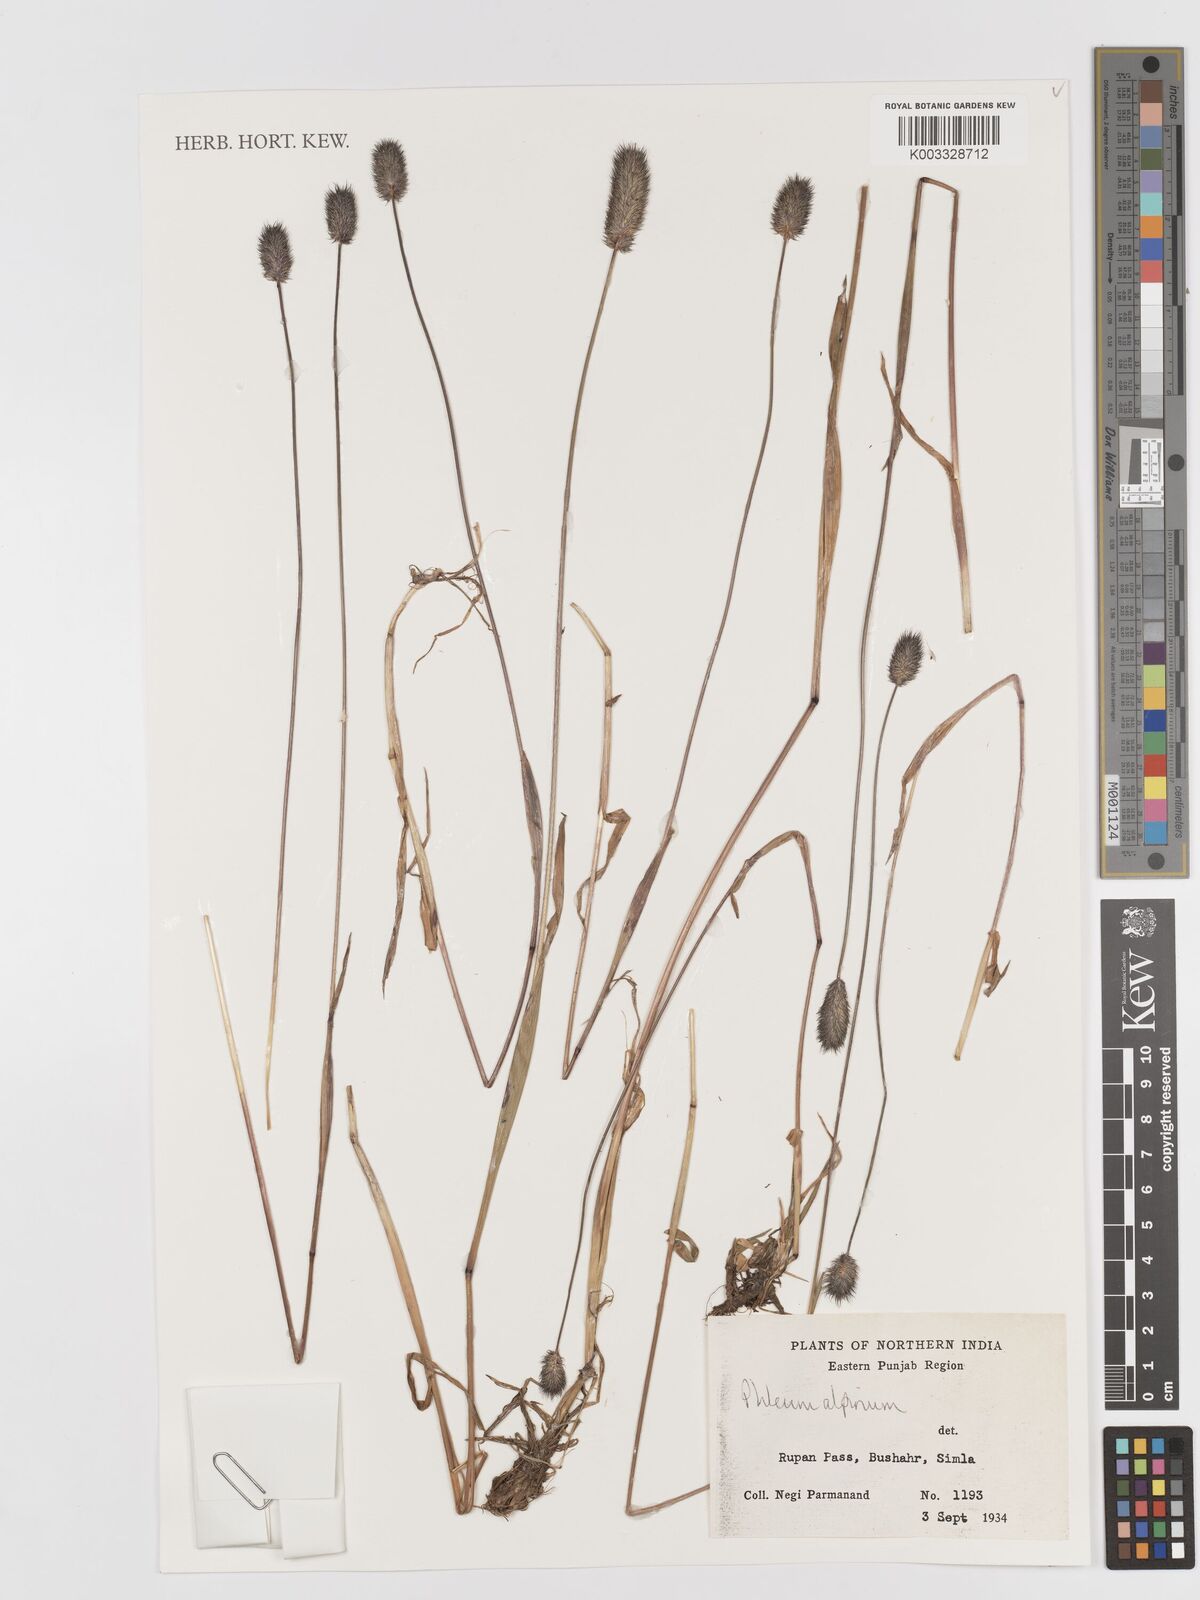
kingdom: Plantae
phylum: Tracheophyta
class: Liliopsida
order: Poales
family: Poaceae
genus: Phleum
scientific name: Phleum alpinum
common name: Alpine cat's-tail
